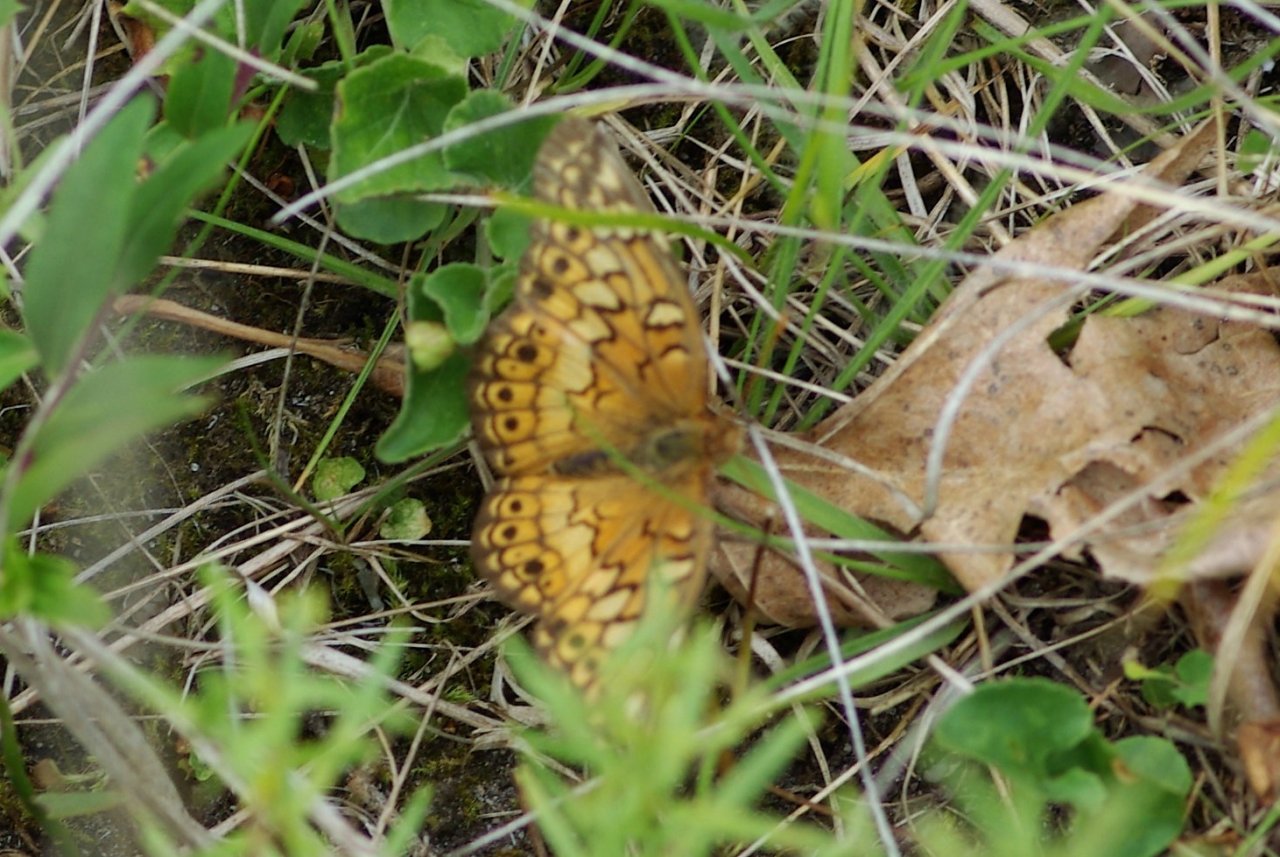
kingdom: Animalia
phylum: Arthropoda
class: Insecta
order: Lepidoptera
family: Nymphalidae
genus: Euptoieta
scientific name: Euptoieta claudia
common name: Variegated Fritillary
